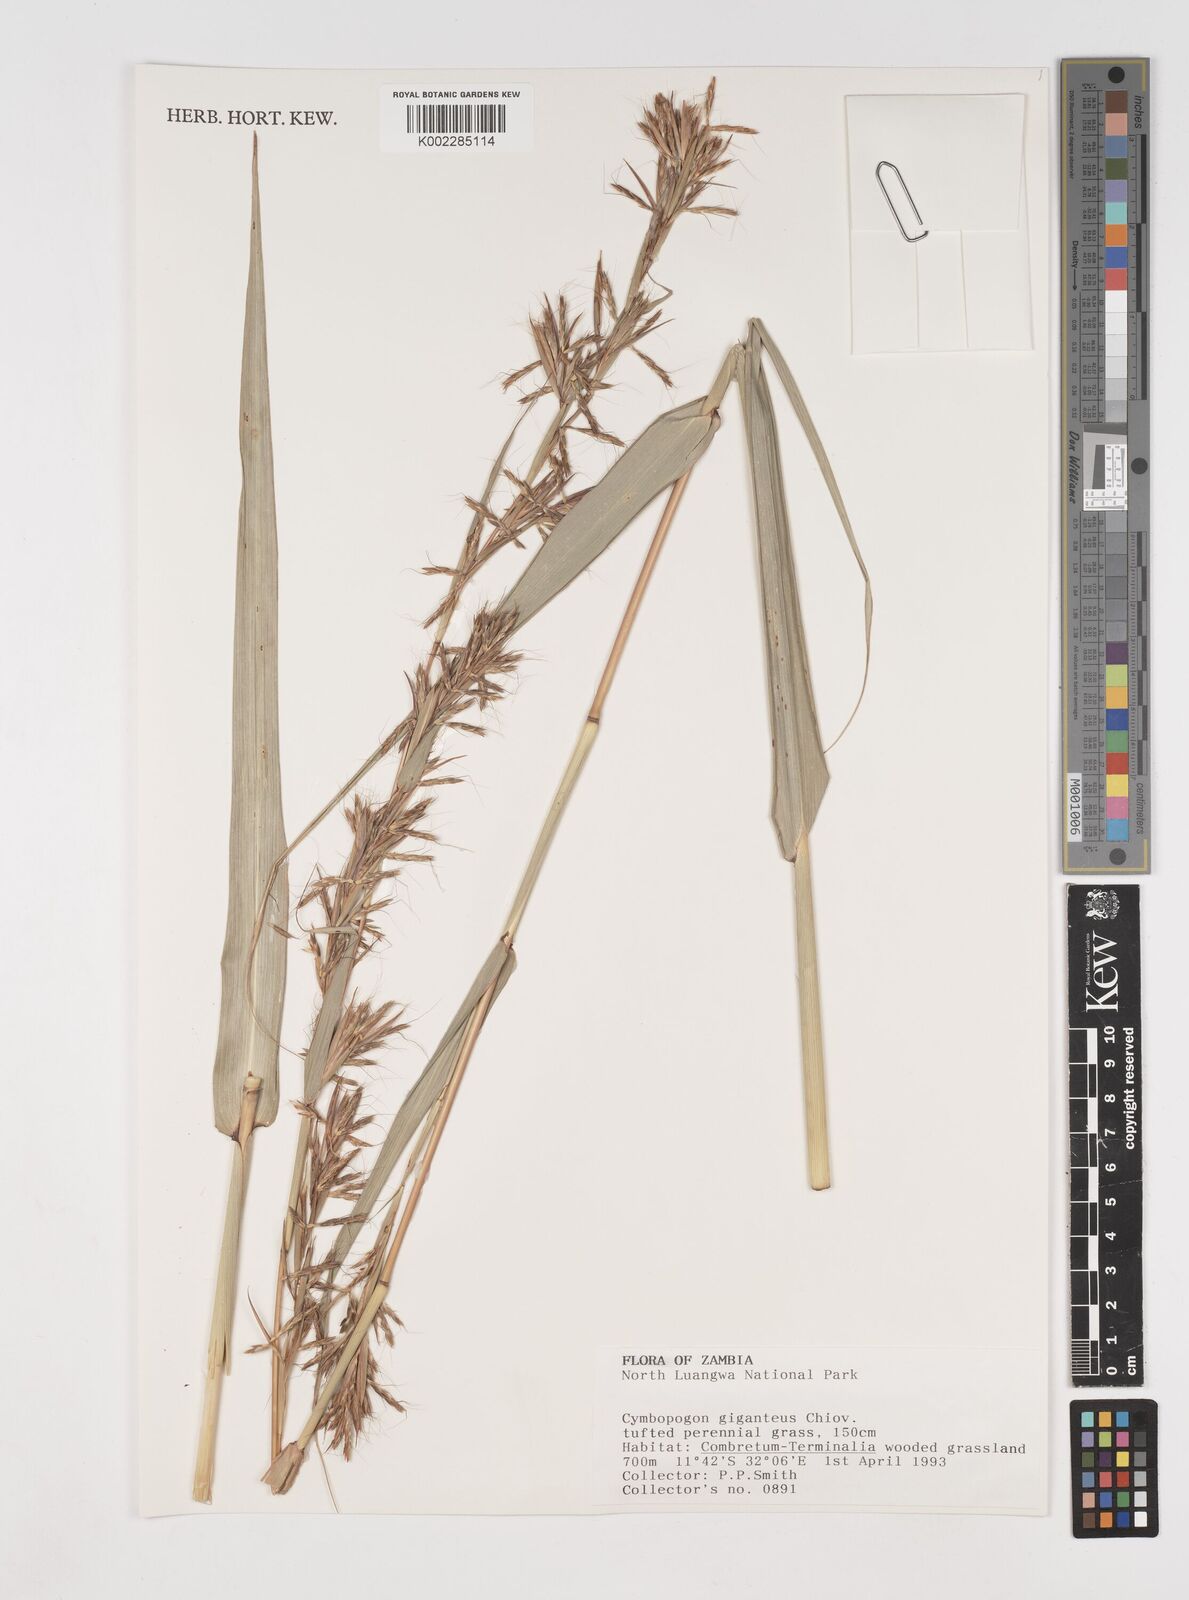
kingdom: Plantae
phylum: Tracheophyta
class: Liliopsida
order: Poales
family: Poaceae
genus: Cymbopogon
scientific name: Cymbopogon giganteus
